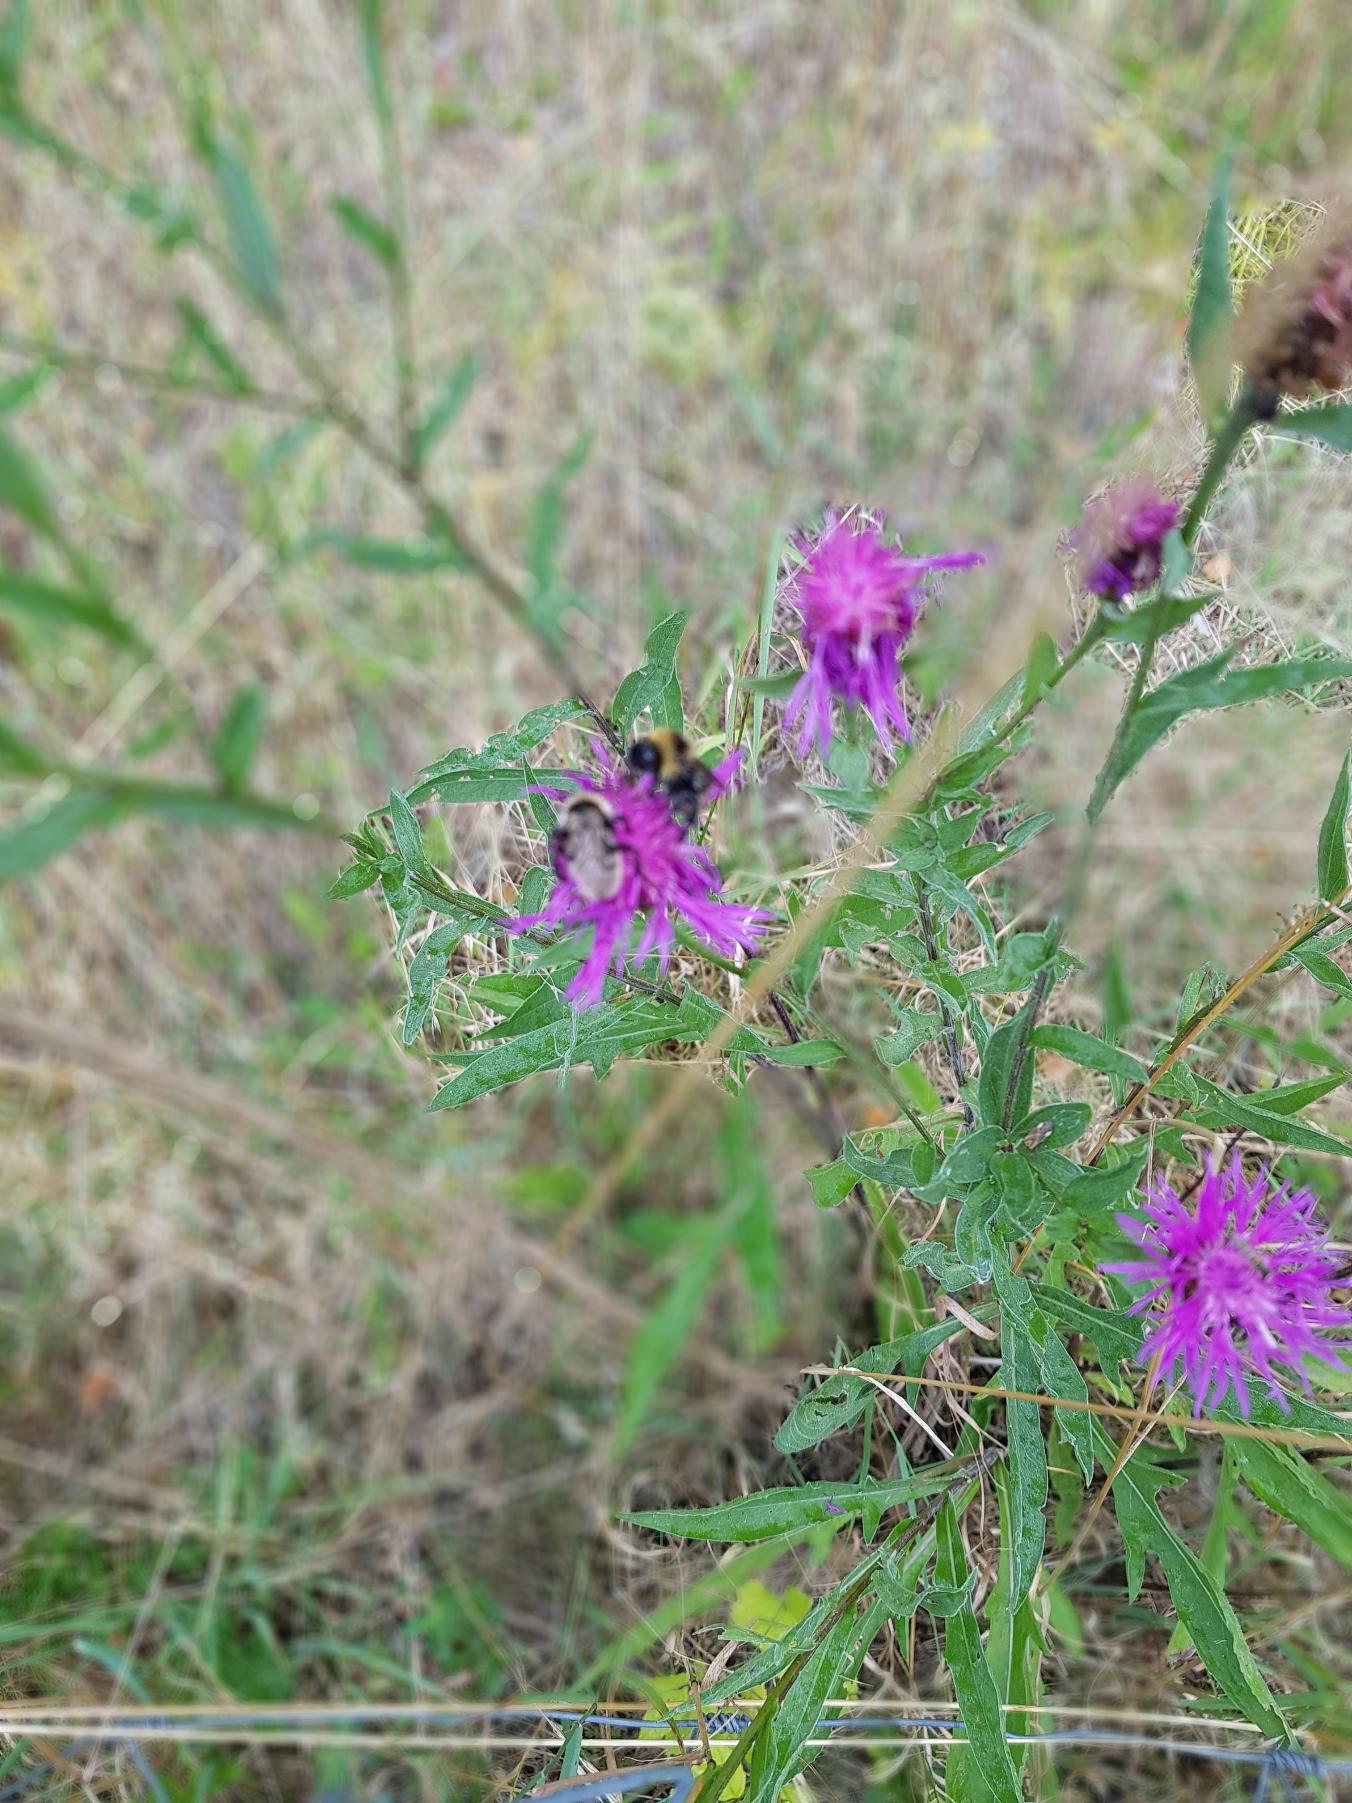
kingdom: Plantae
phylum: Tracheophyta
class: Magnoliopsida
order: Asterales
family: Asteraceae
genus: Centaurea
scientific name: Centaurea jacea
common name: Almindelig knopurt
